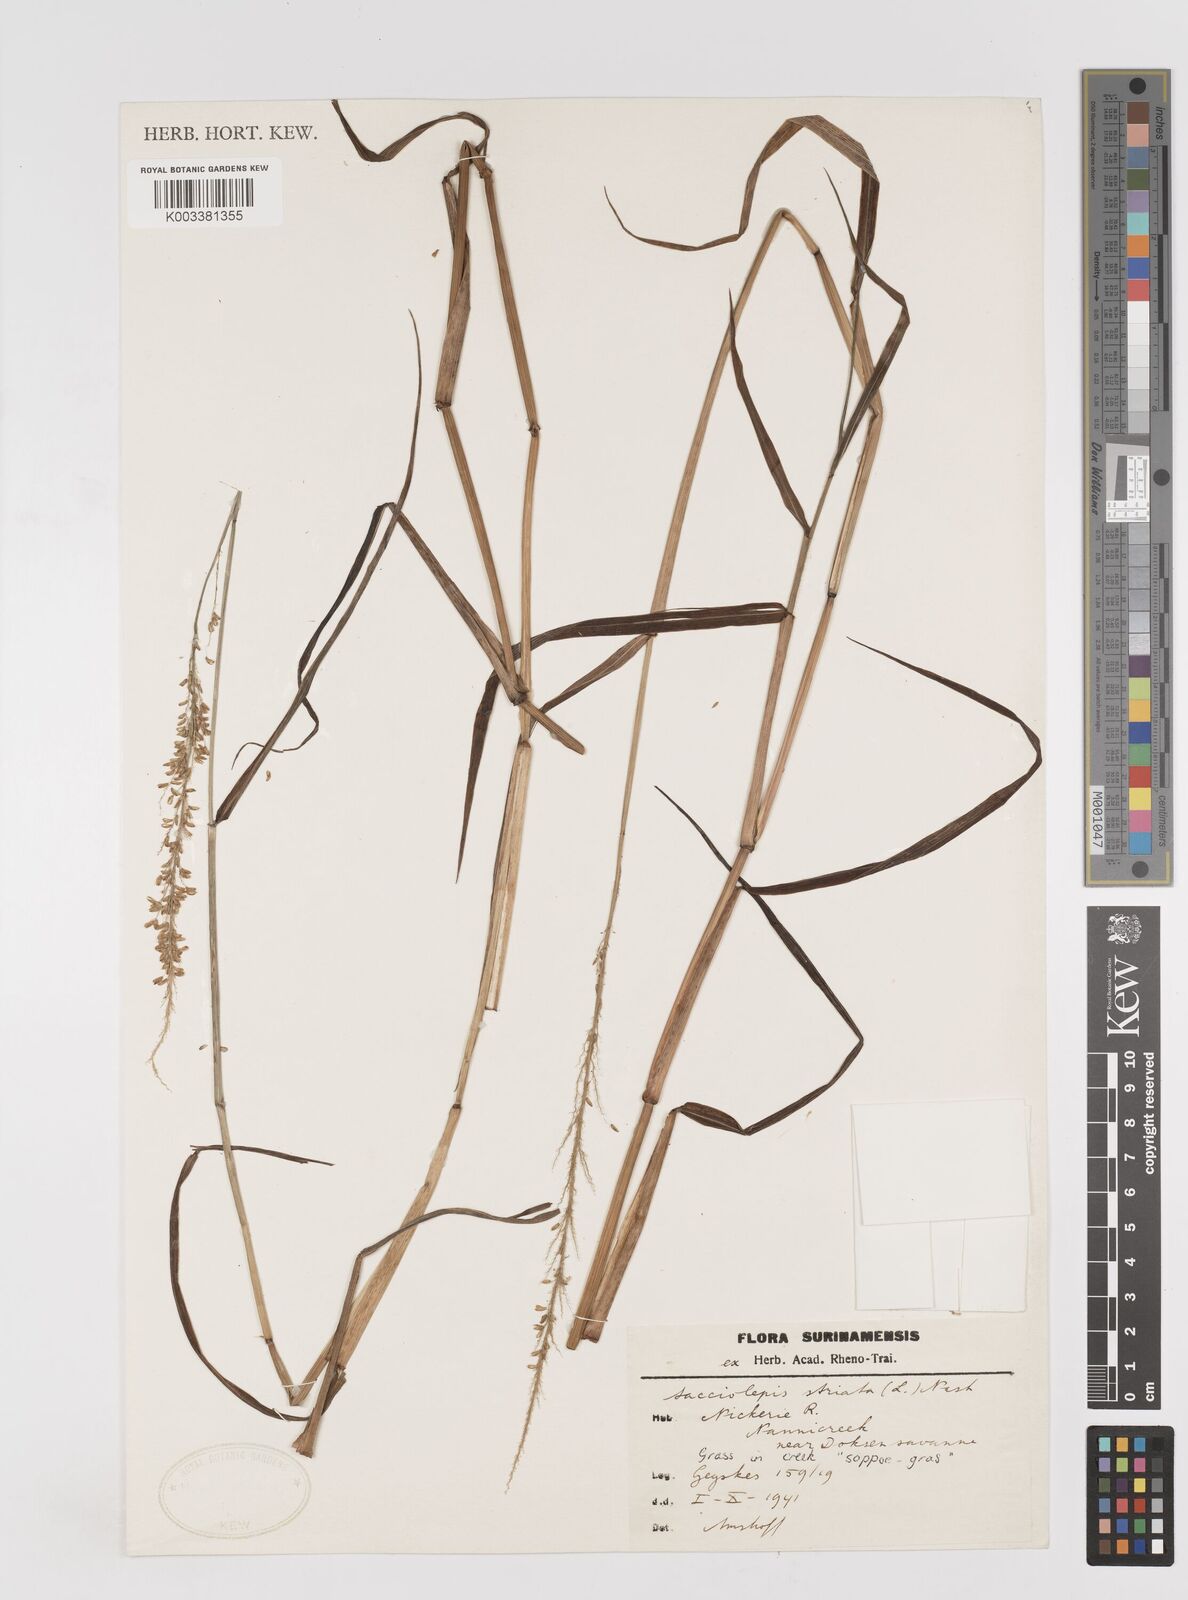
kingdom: Plantae
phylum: Tracheophyta
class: Liliopsida
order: Poales
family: Poaceae
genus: Sacciolepis
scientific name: Sacciolepis striata
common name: American cupscale
